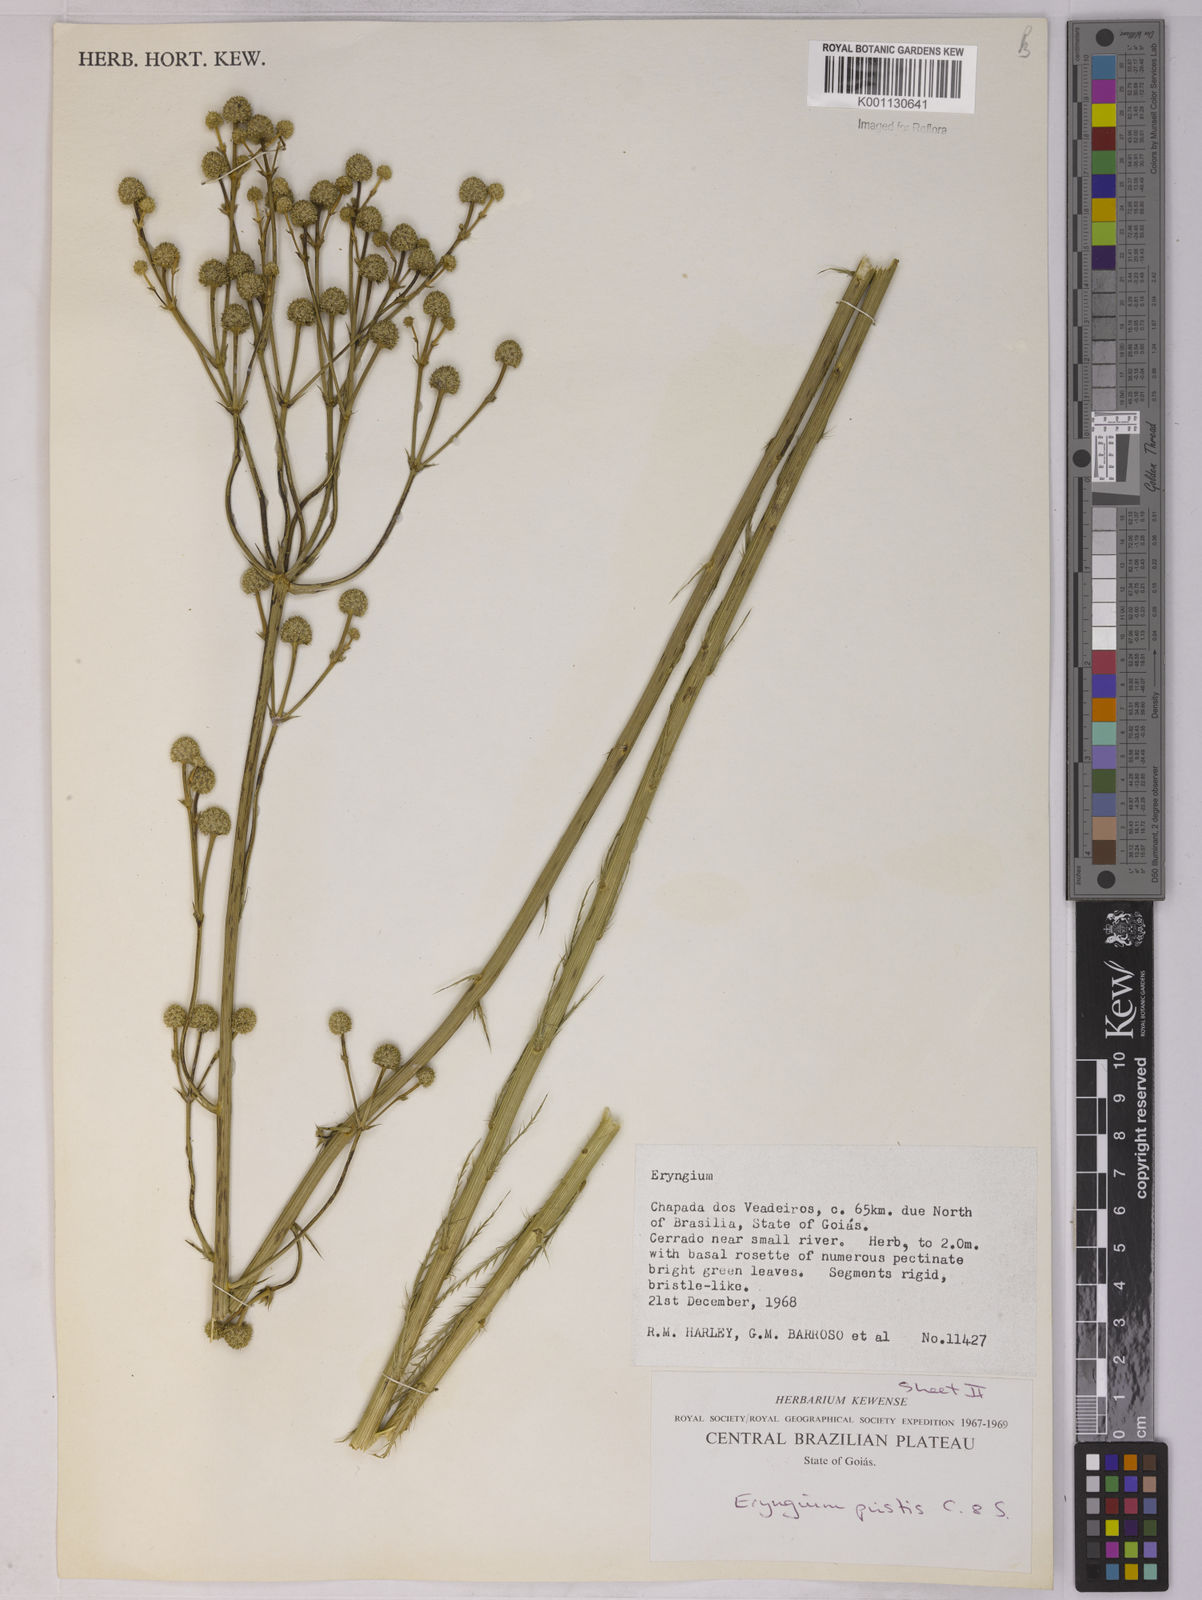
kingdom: Plantae
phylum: Tracheophyta
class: Magnoliopsida
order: Apiales
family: Apiaceae
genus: Eryngium
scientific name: Eryngium pristis
